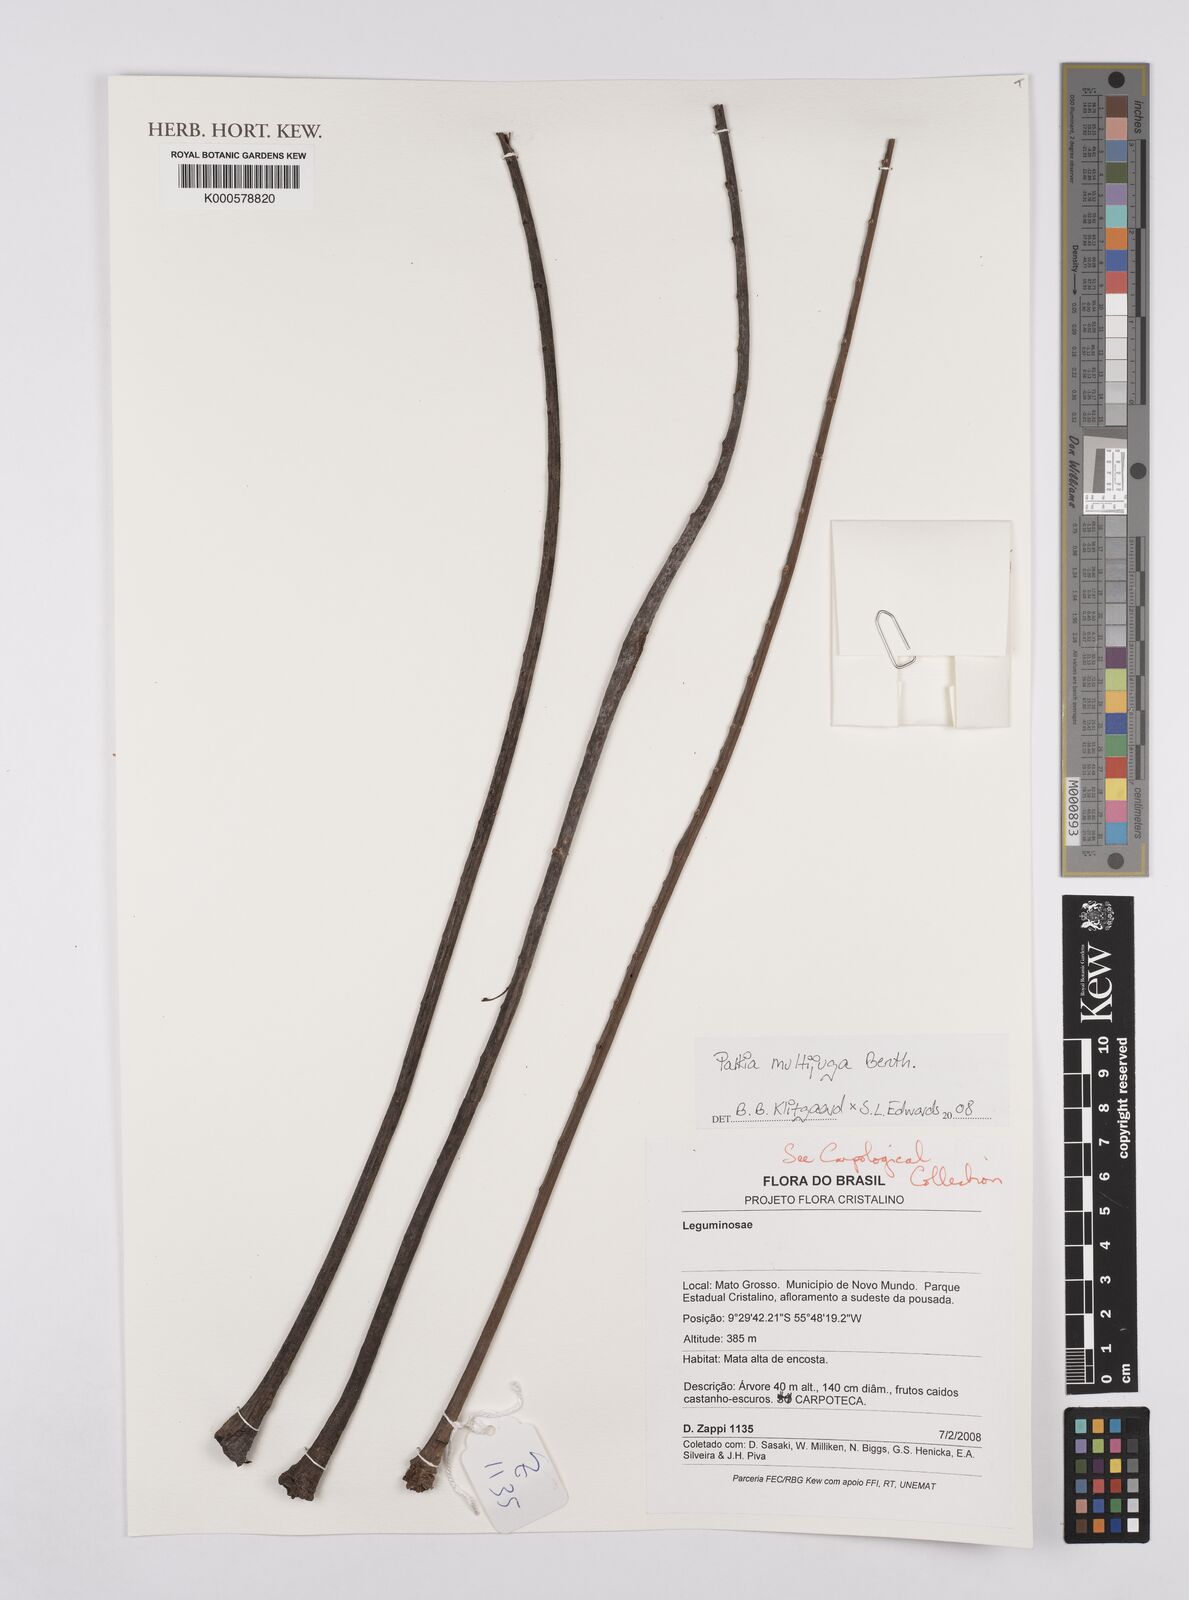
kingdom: Plantae
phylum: Tracheophyta
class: Magnoliopsida
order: Fabales
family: Fabaceae
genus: Parkia
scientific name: Parkia multijuga
